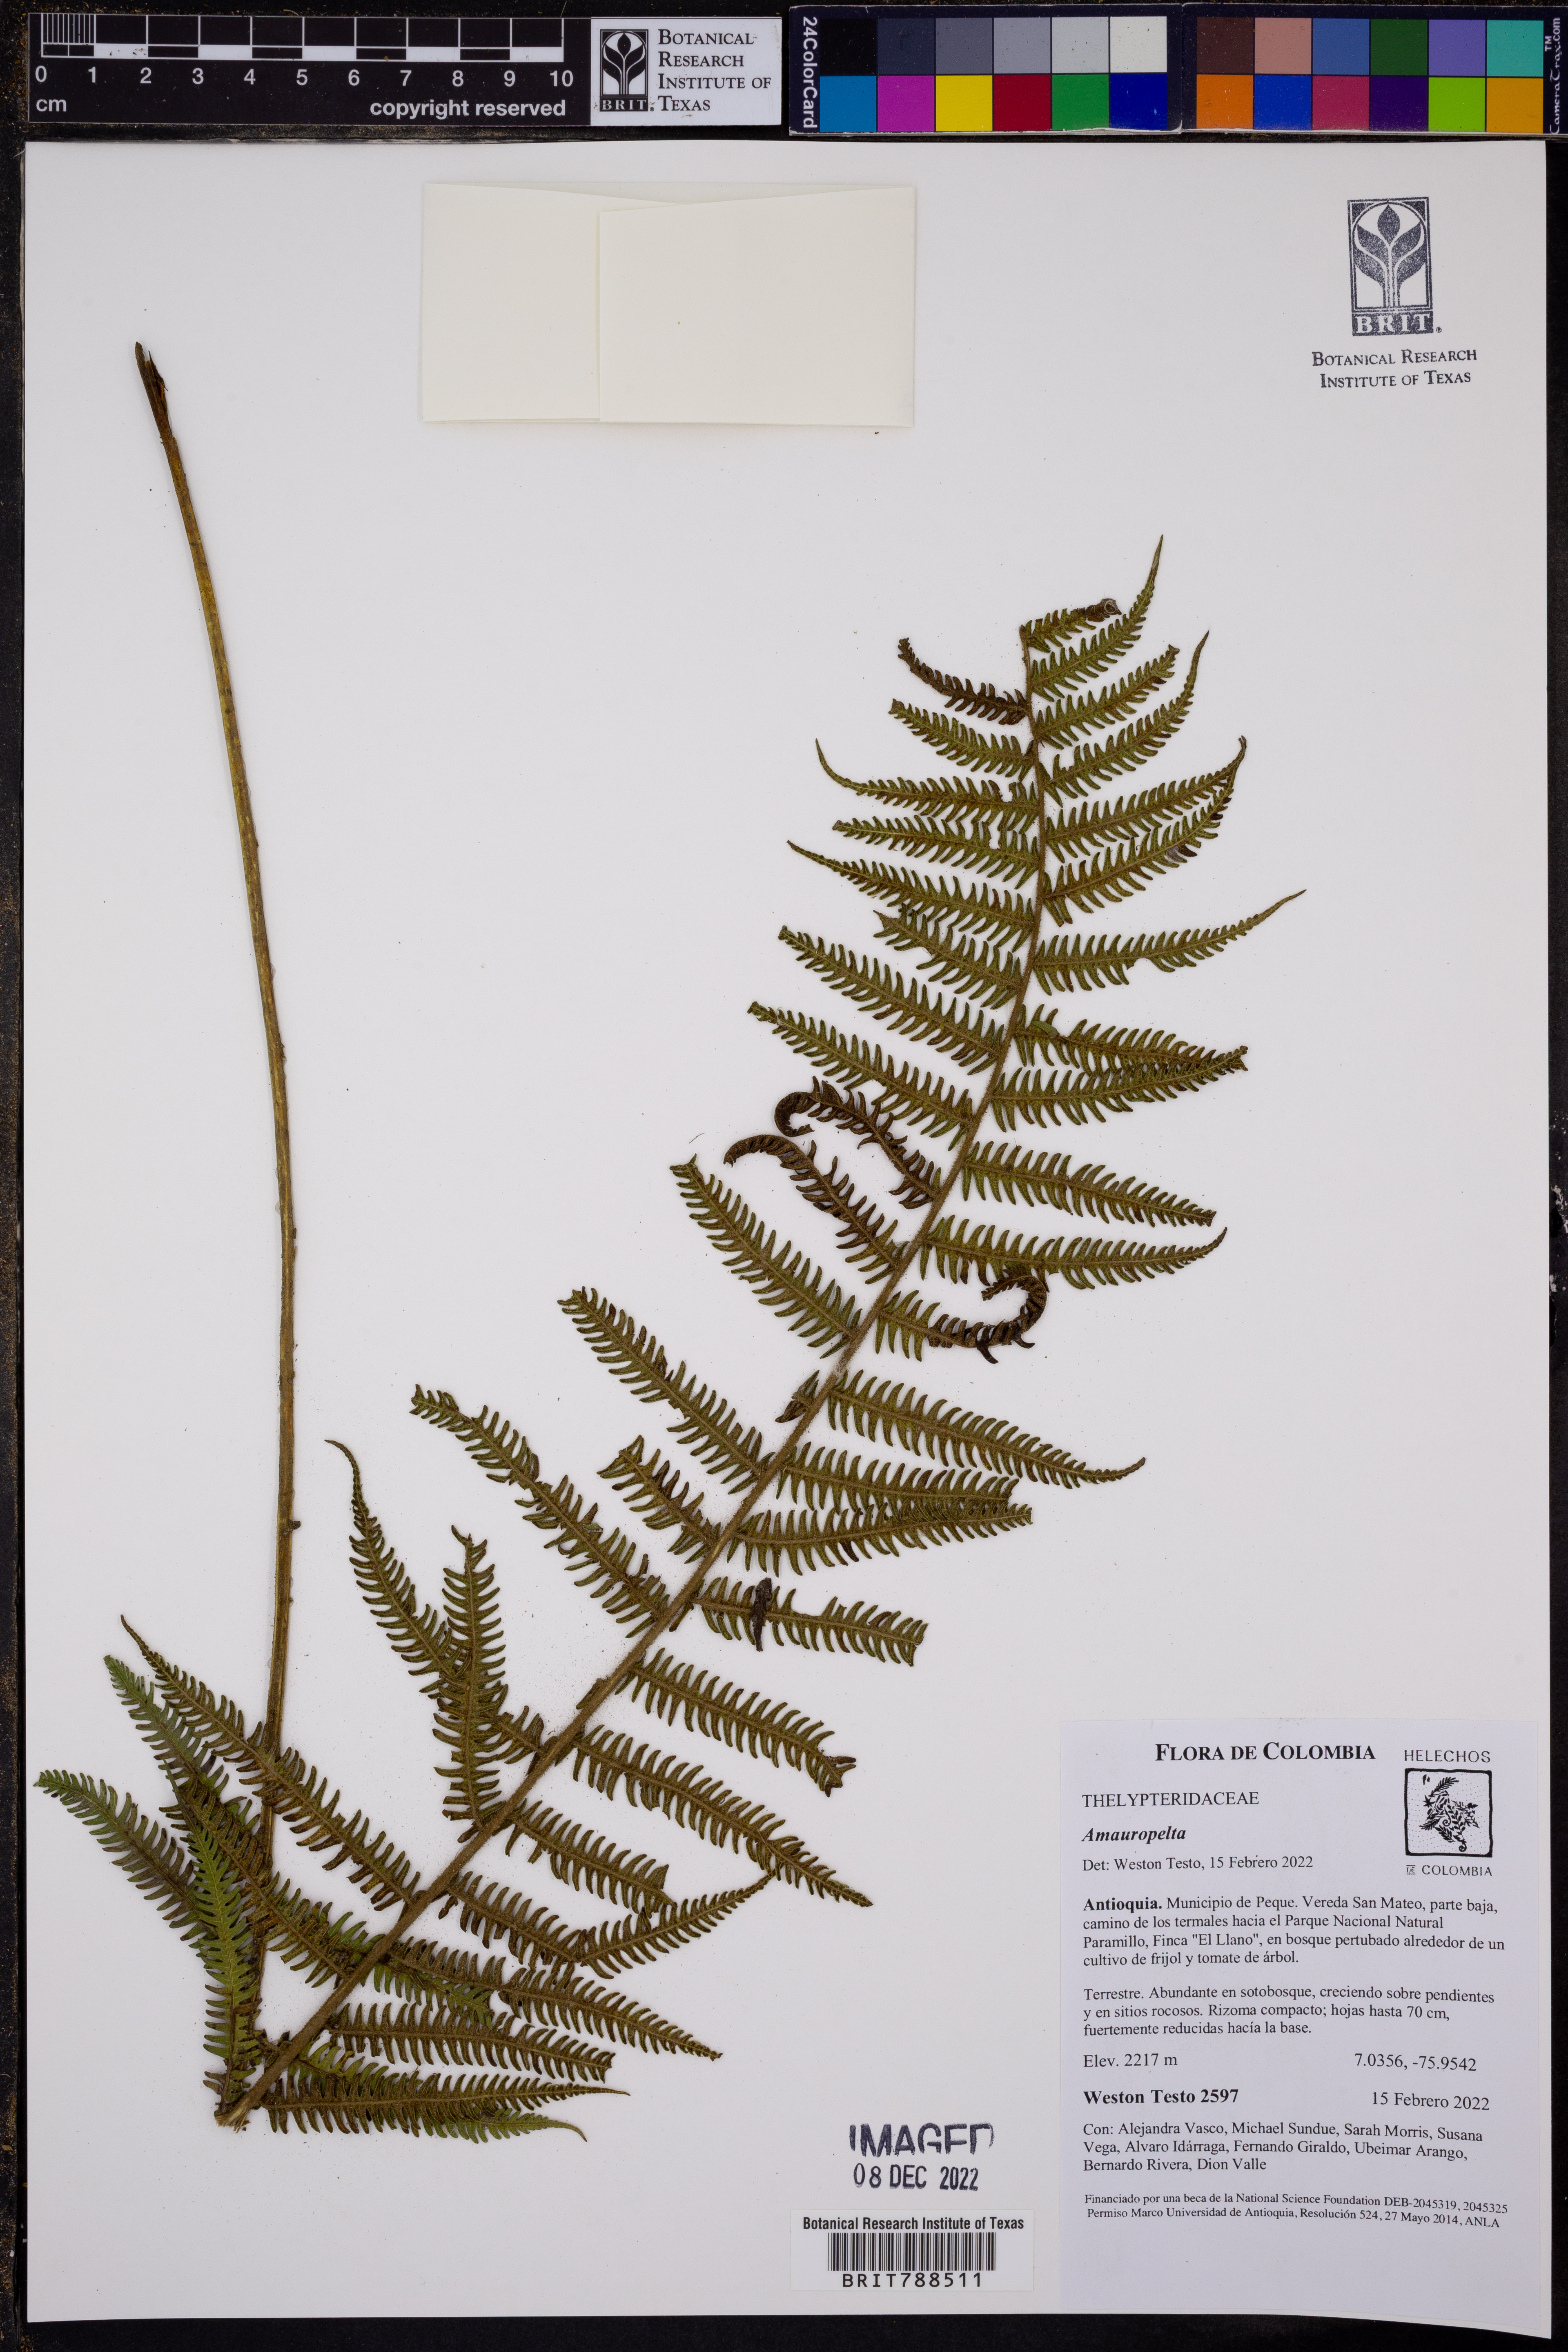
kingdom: Plantae
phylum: Tracheophyta
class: Polypodiopsida
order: Polypodiales
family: Thelypteridaceae
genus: Amauropelta
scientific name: Amauropelta
